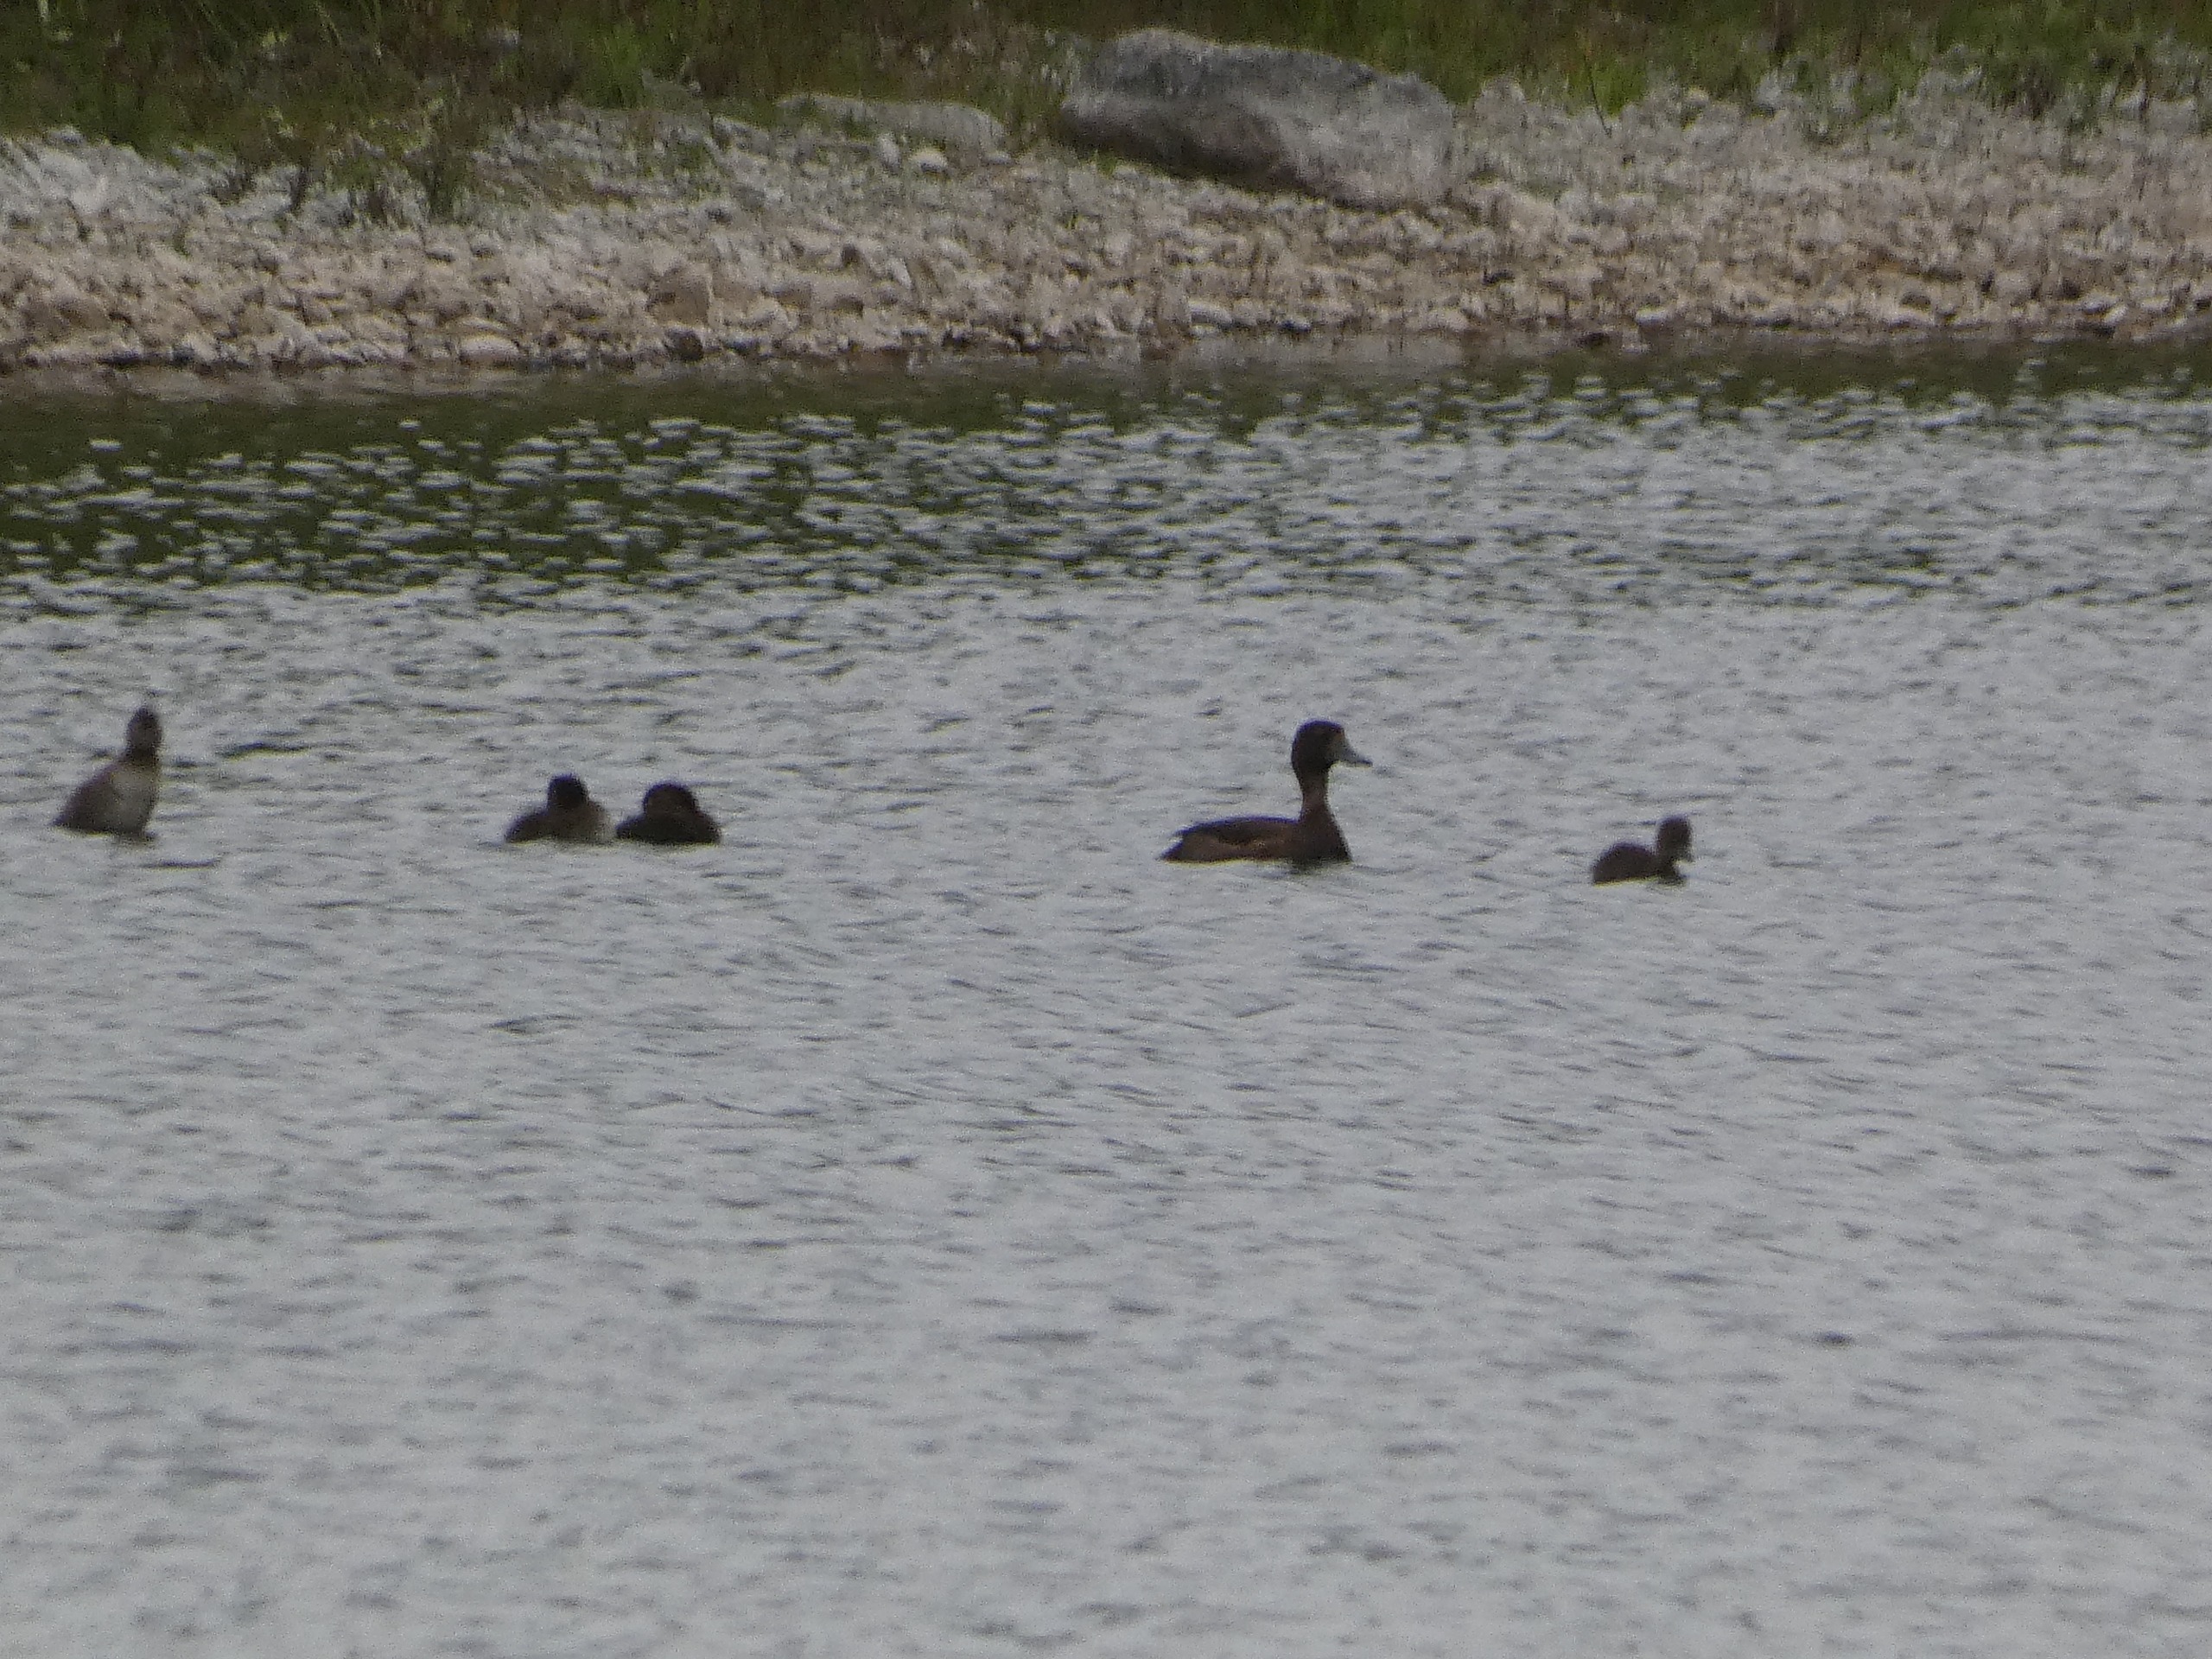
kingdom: Animalia
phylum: Chordata
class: Aves
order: Anseriformes
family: Anatidae
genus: Aythya
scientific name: Aythya fuligula
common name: Troldand
